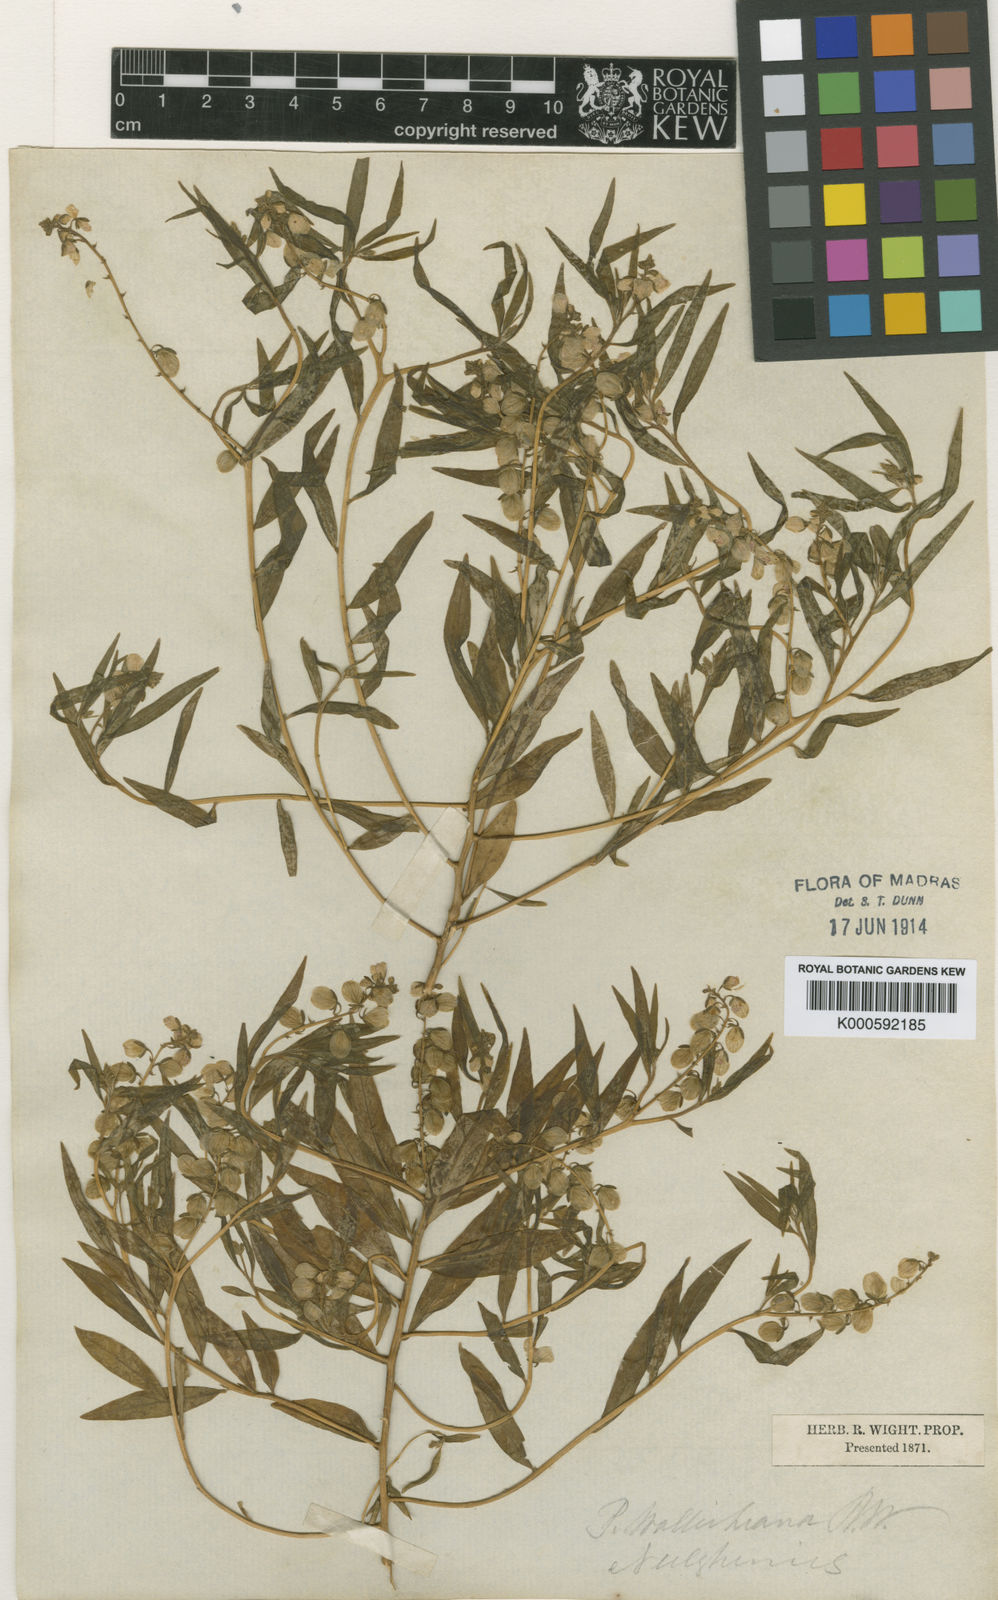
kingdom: Plantae
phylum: Tracheophyta
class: Magnoliopsida
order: Fabales
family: Polygalaceae
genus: Polygala
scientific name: Polygala persicariifolia
